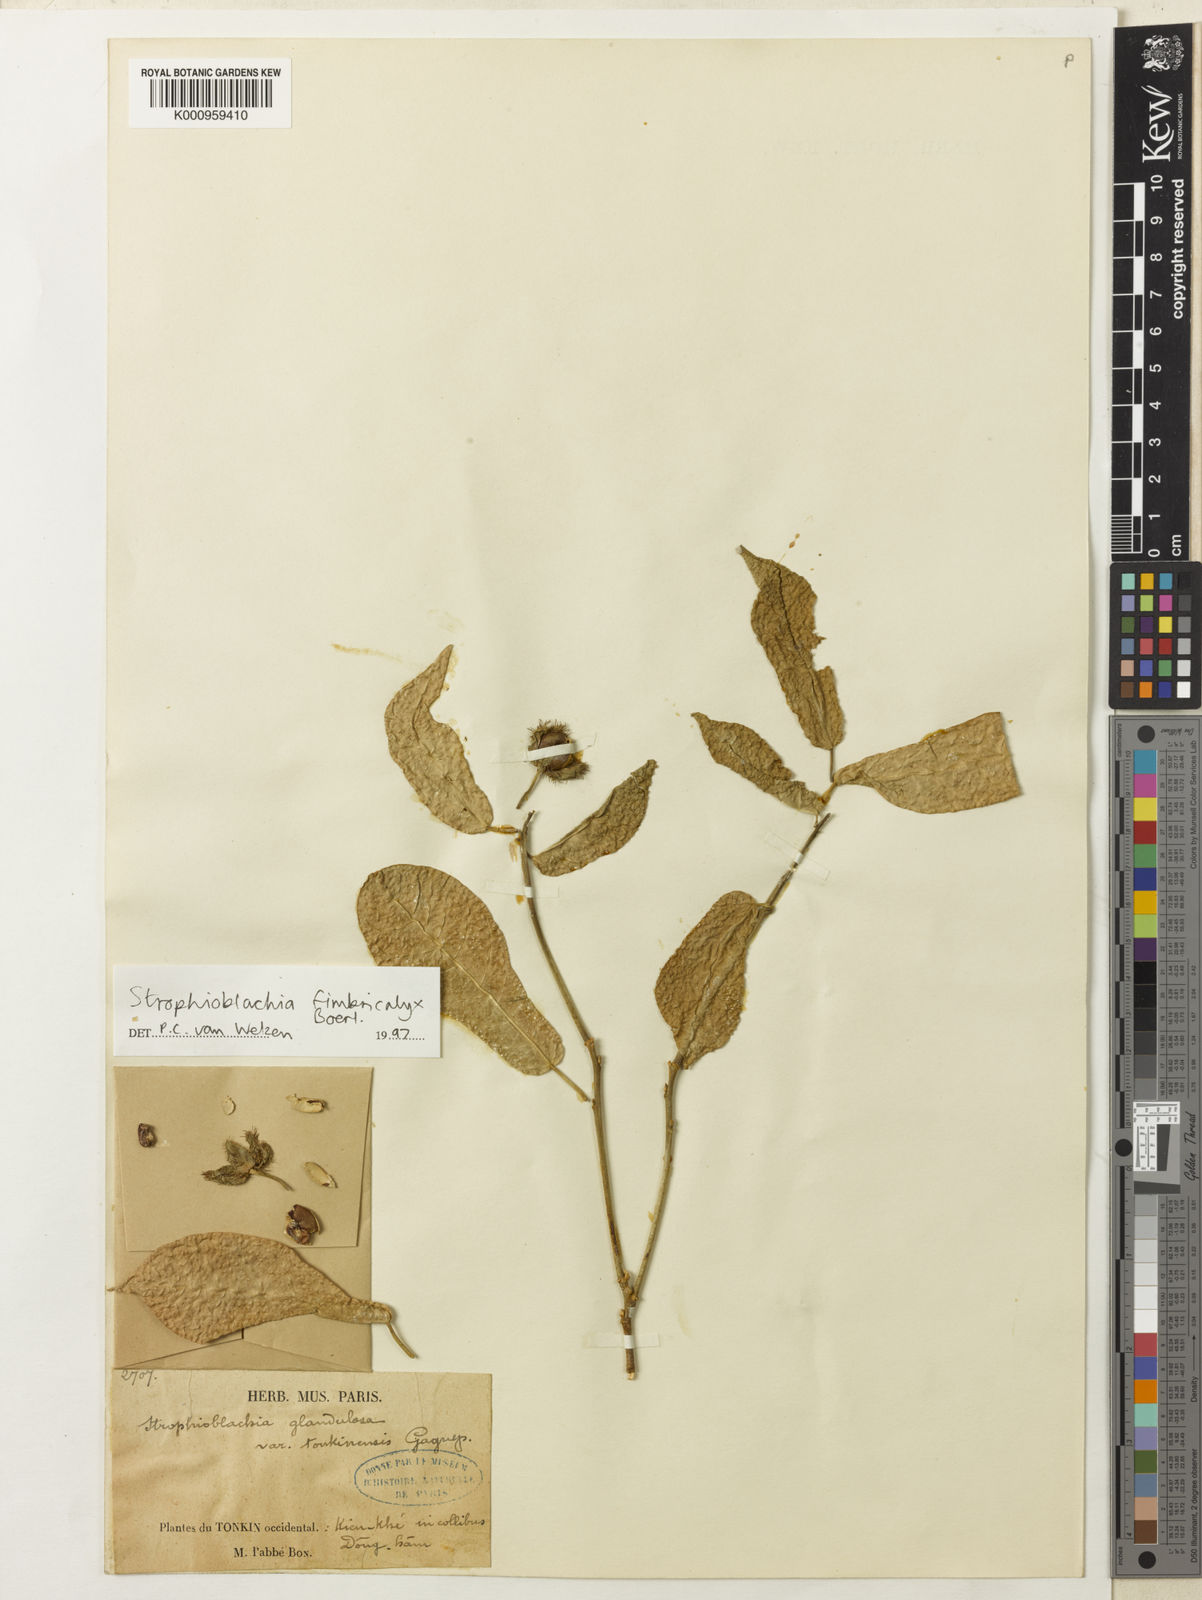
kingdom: Plantae
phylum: Tracheophyta
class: Magnoliopsida
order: Malpighiales
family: Euphorbiaceae
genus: Strophioblachia
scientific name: Strophioblachia fimbricalyx
